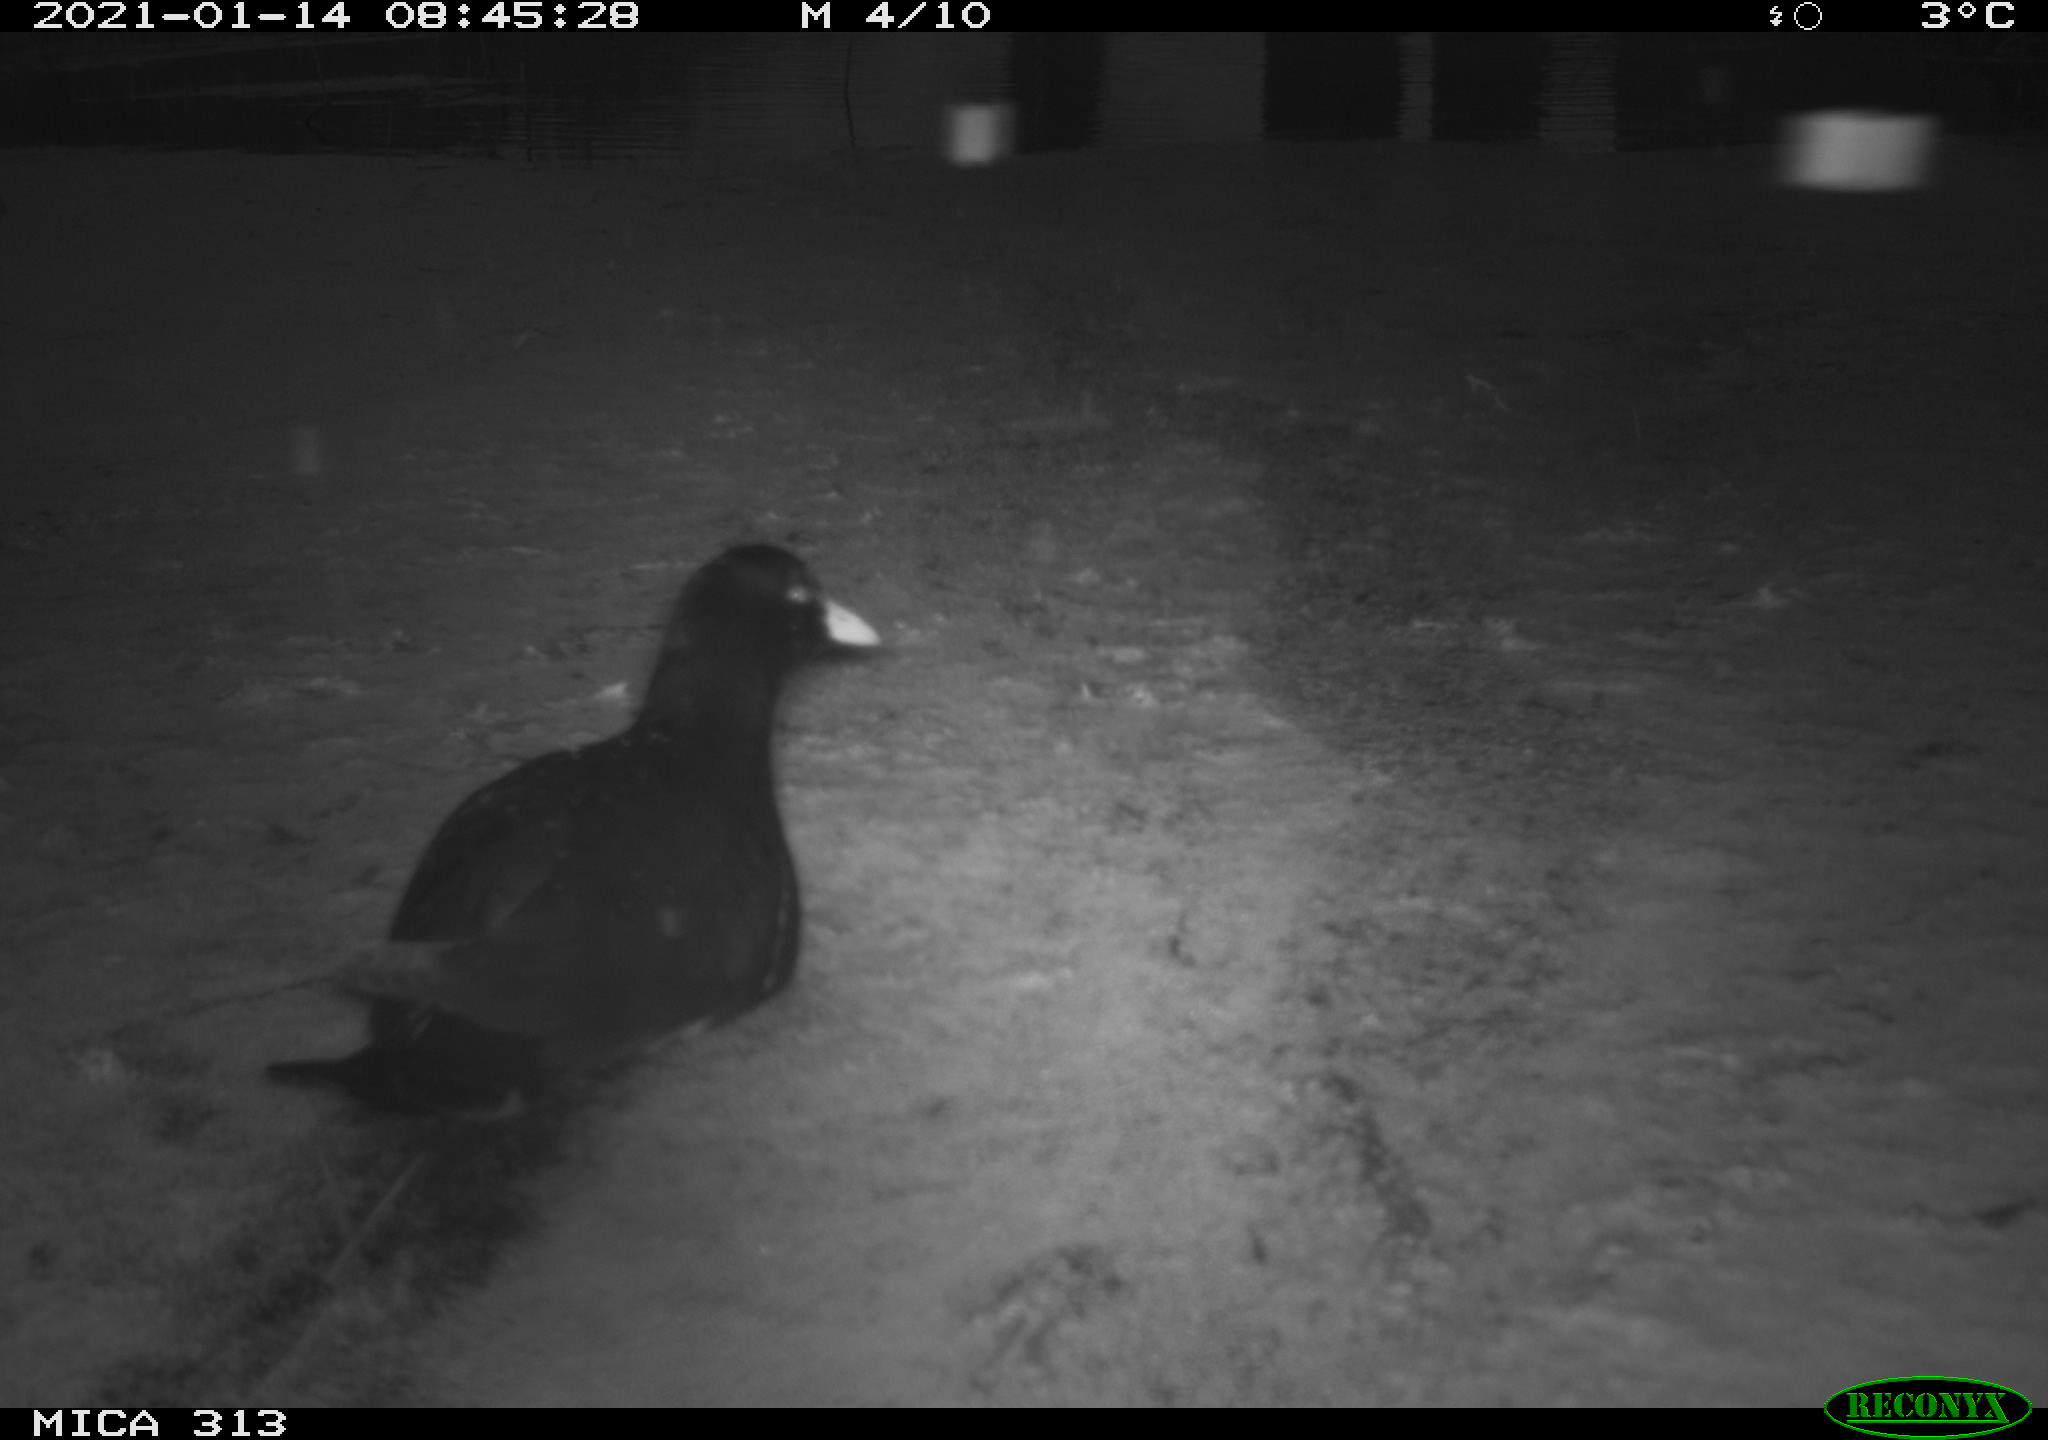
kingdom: Animalia
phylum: Chordata
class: Aves
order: Gruiformes
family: Rallidae
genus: Fulica
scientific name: Fulica atra
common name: Eurasian coot
